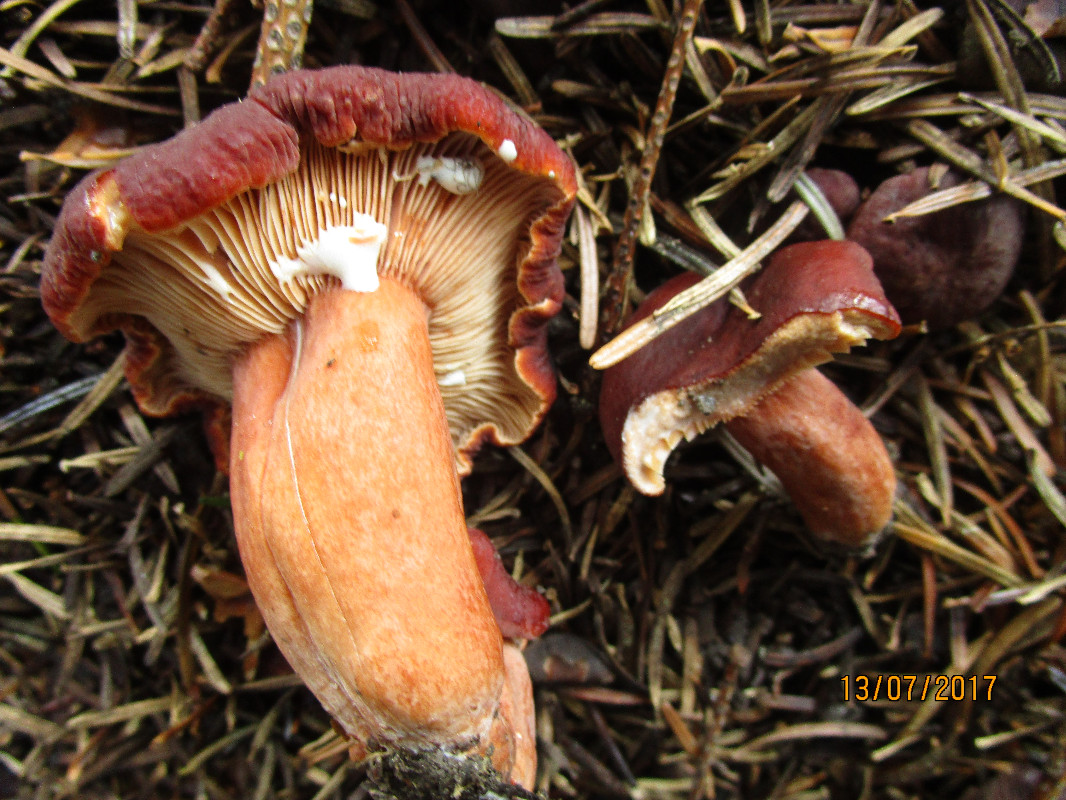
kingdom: Fungi
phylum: Basidiomycota
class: Agaricomycetes
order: Russulales
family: Russulaceae
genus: Lactifluus
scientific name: Lactifluus volemus
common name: spiselig mælkehat
